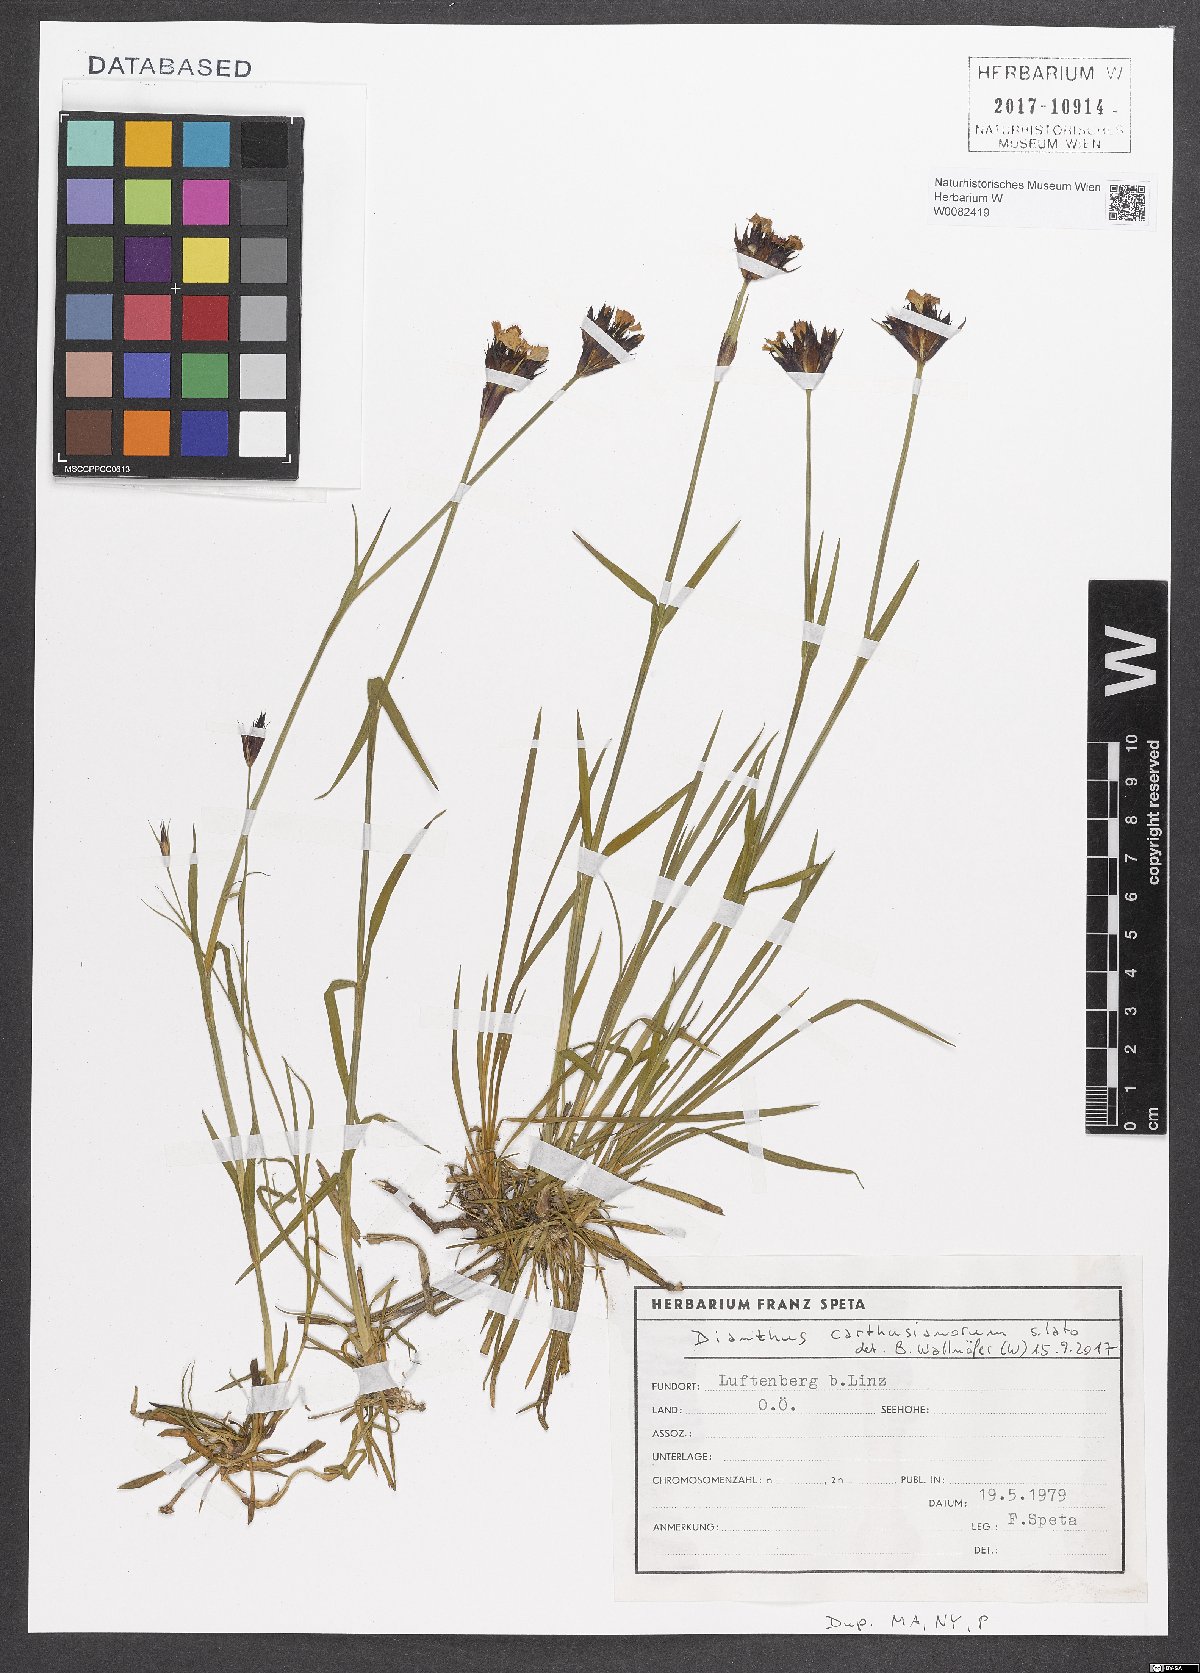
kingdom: Plantae
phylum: Tracheophyta
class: Magnoliopsida
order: Caryophyllales
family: Caryophyllaceae
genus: Dianthus
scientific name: Dianthus carthusianorum
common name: Carthusian pink
